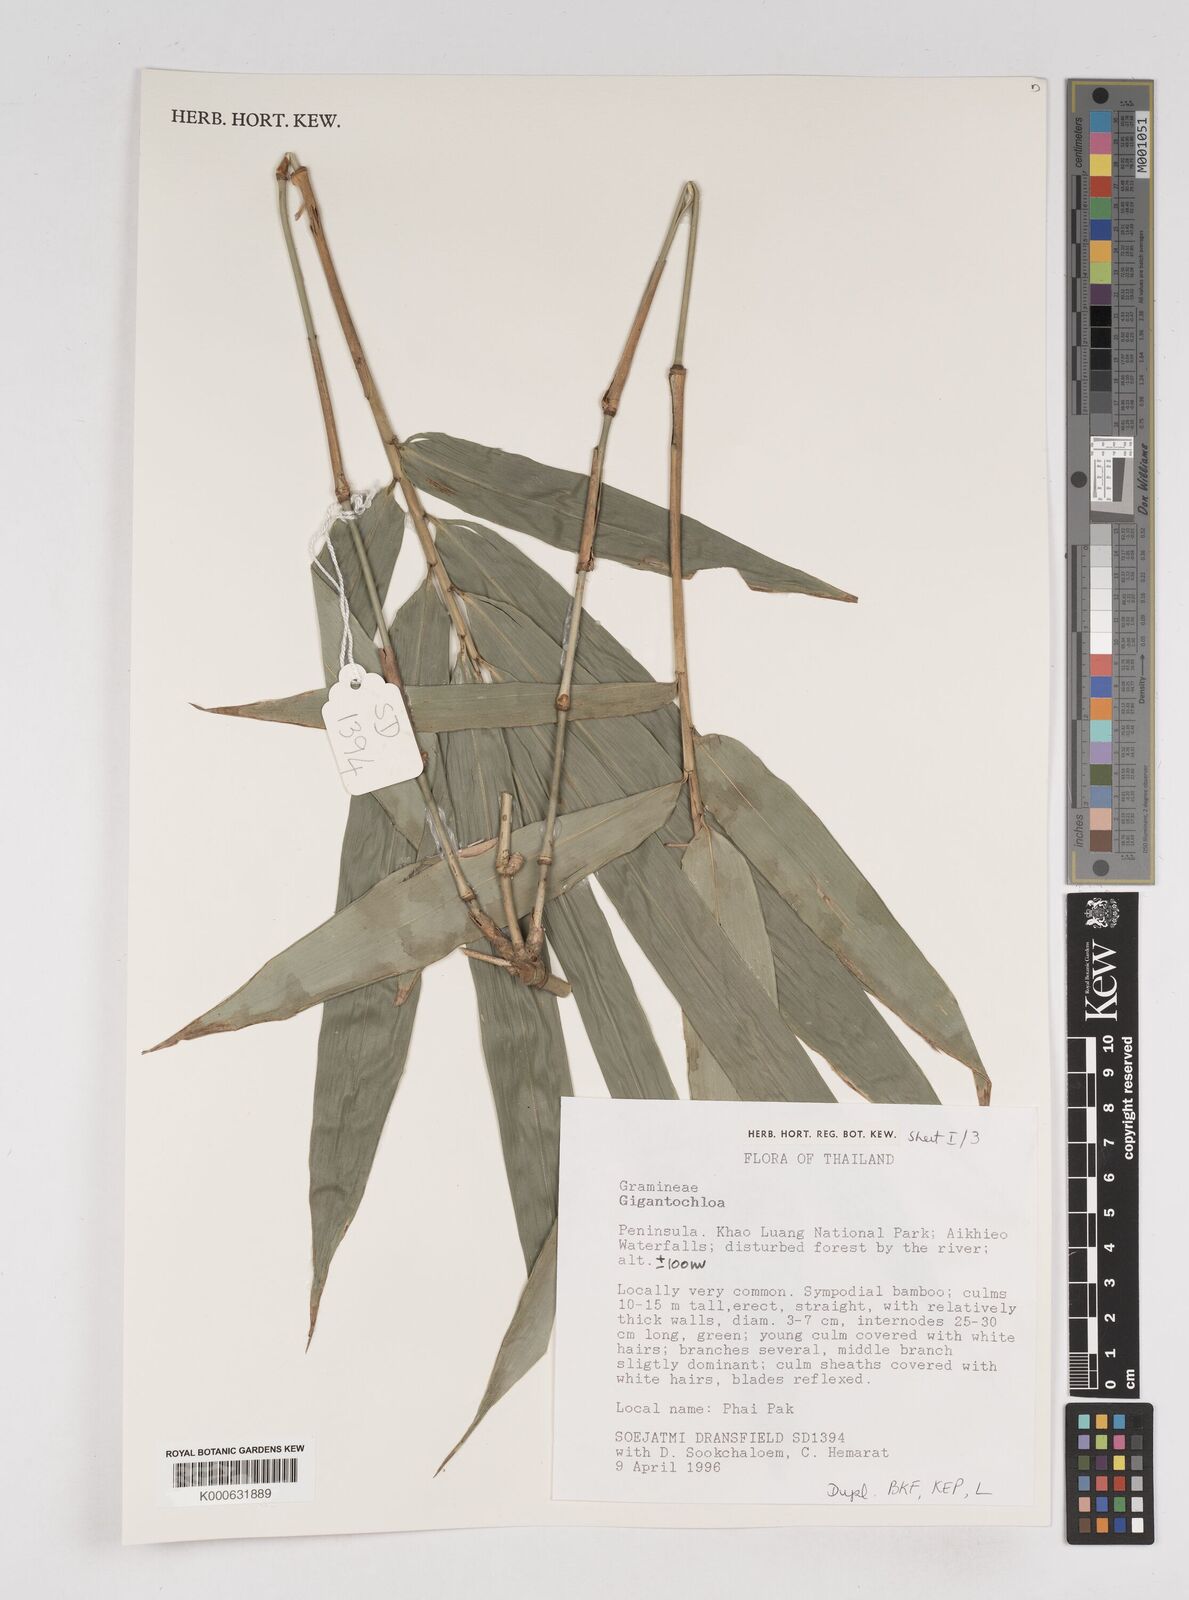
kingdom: Plantae
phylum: Tracheophyta
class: Liliopsida
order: Poales
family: Poaceae
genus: Gigantochloa
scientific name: Gigantochloa
